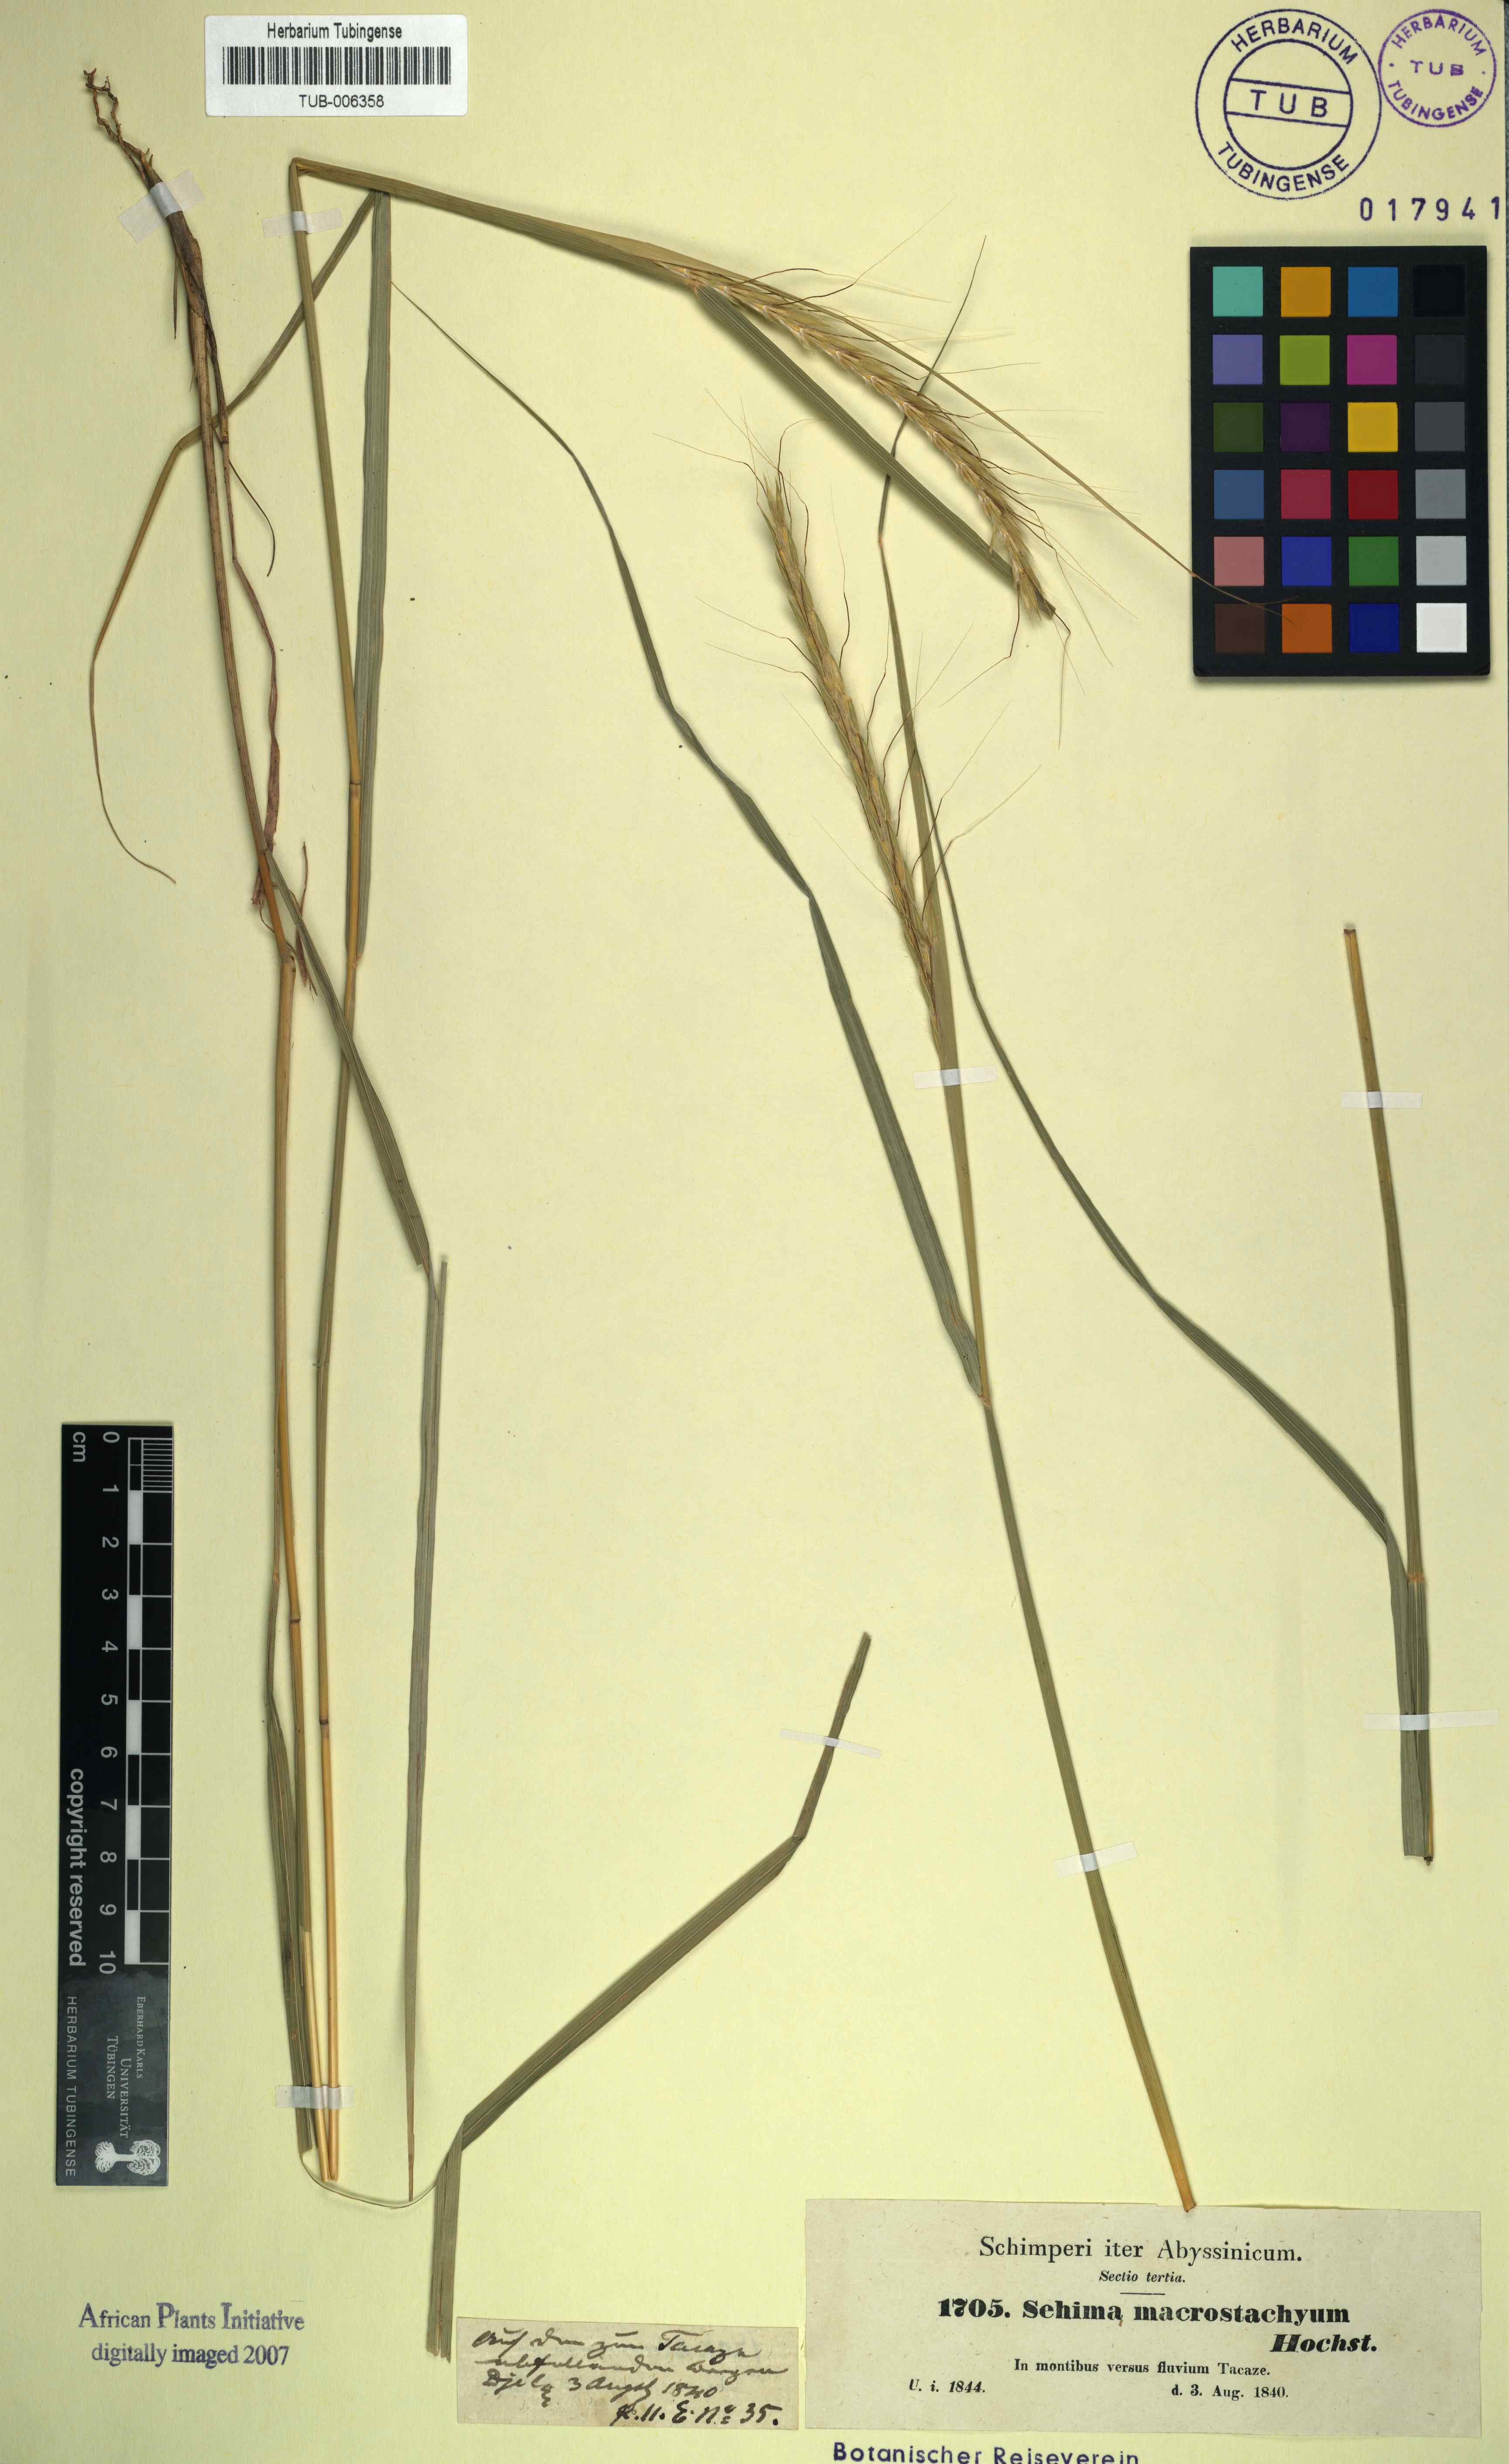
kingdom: Plantae
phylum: Tracheophyta
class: Liliopsida
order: Poales
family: Poaceae
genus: Sehima
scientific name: Sehima nervosa
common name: Rat-tail grass
